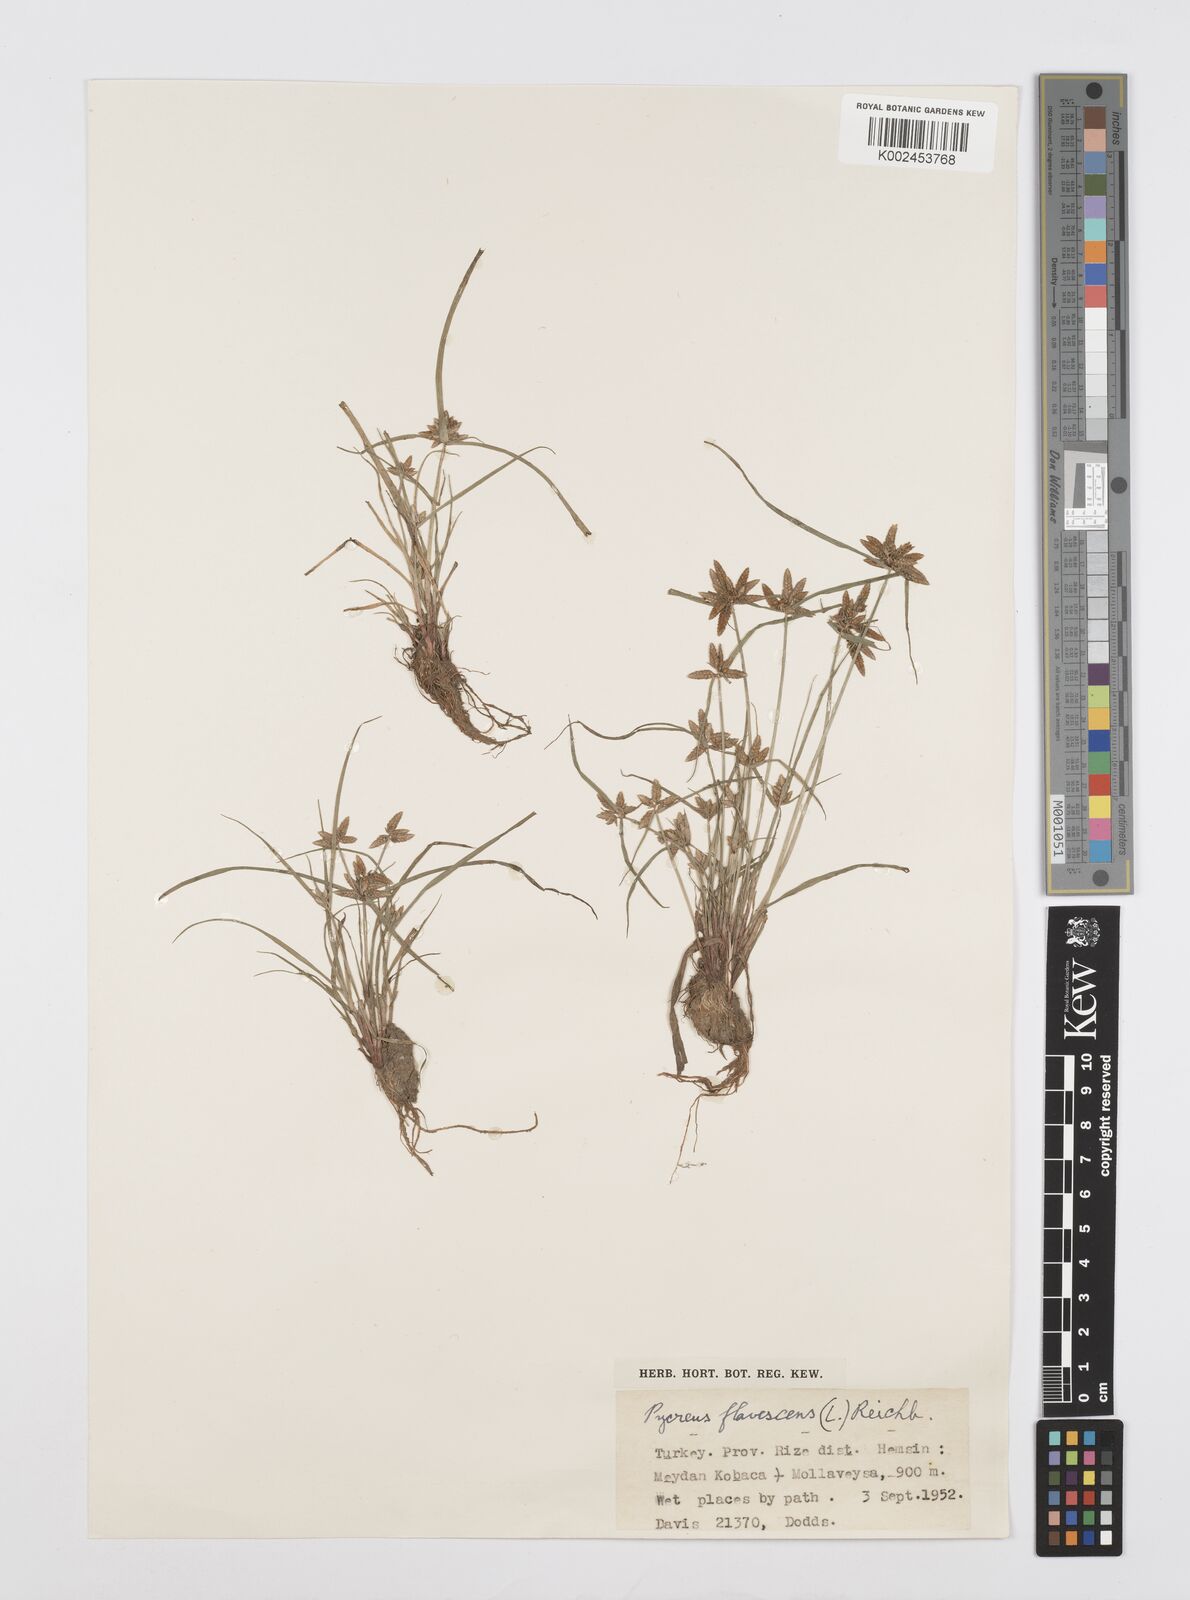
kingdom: Plantae
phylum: Tracheophyta
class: Liliopsida
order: Poales
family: Cyperaceae
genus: Cyperus
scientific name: Cyperus flavescens
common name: Yellow galingale
